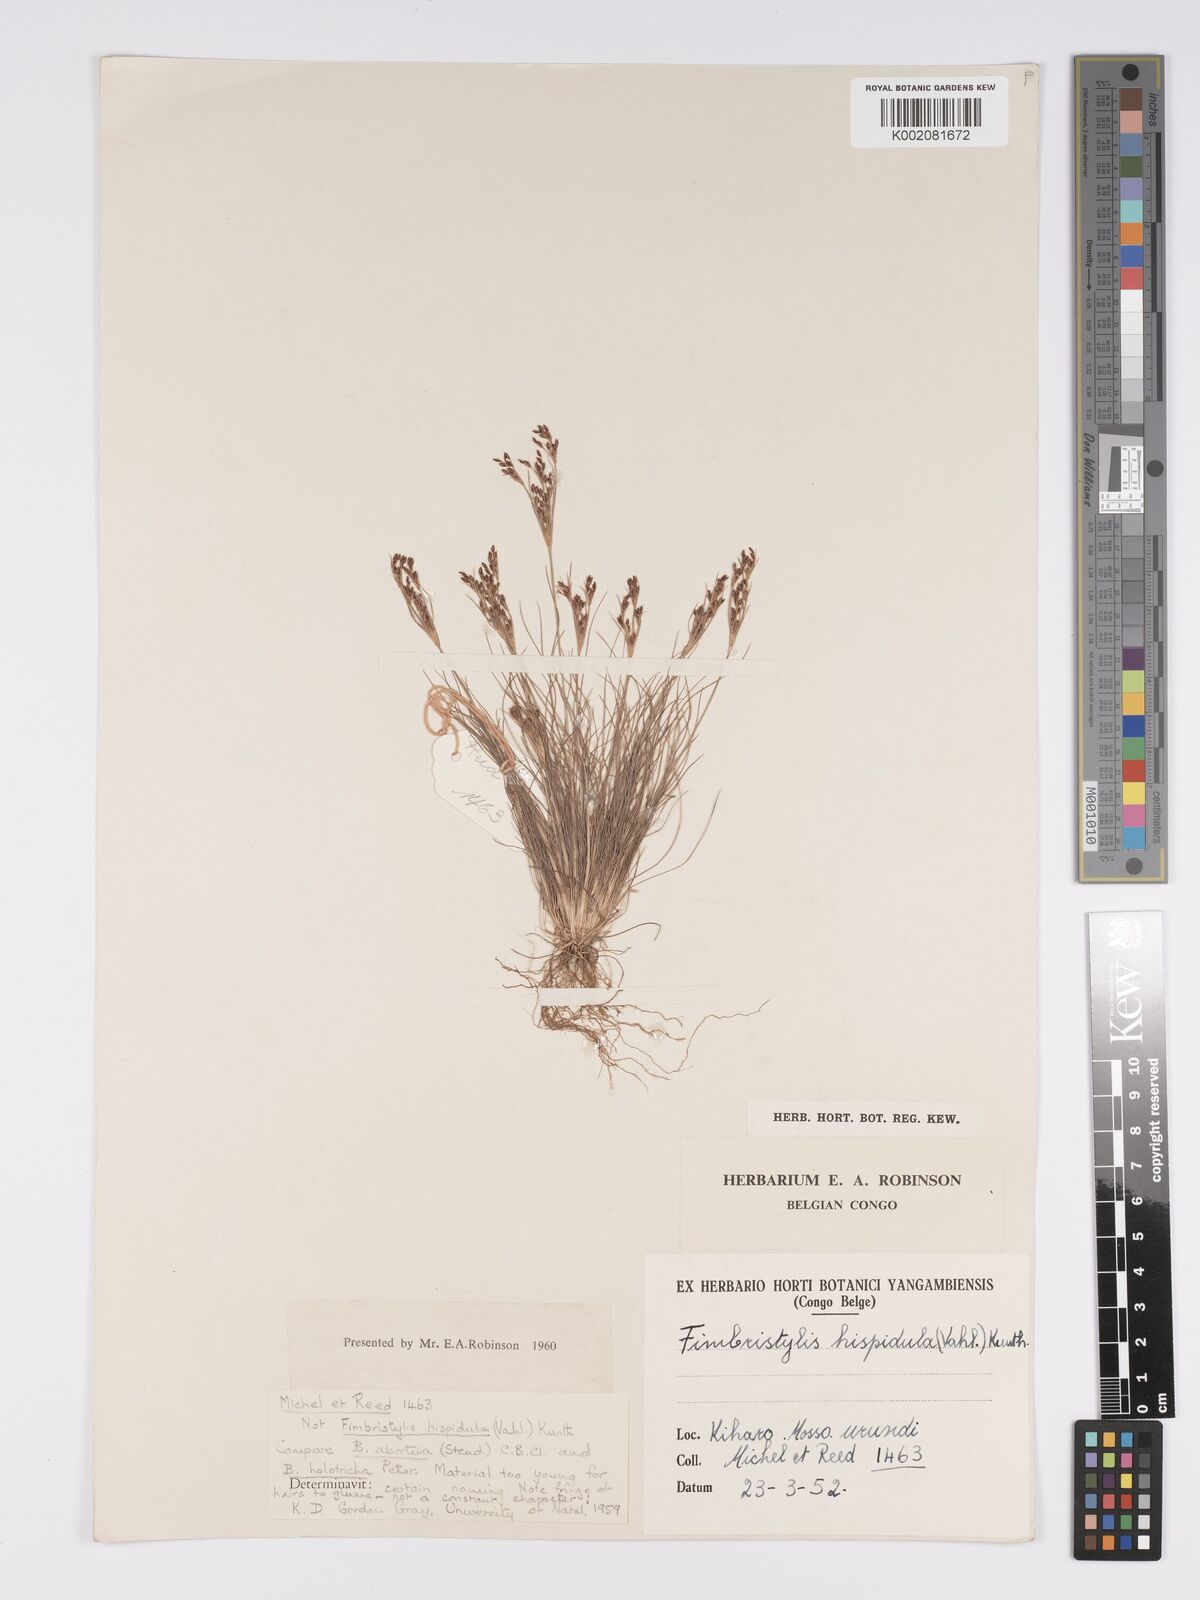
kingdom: Plantae
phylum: Tracheophyta
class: Liliopsida
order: Poales
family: Cyperaceae
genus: Bulbostylis
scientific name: Bulbostylis abortiva
